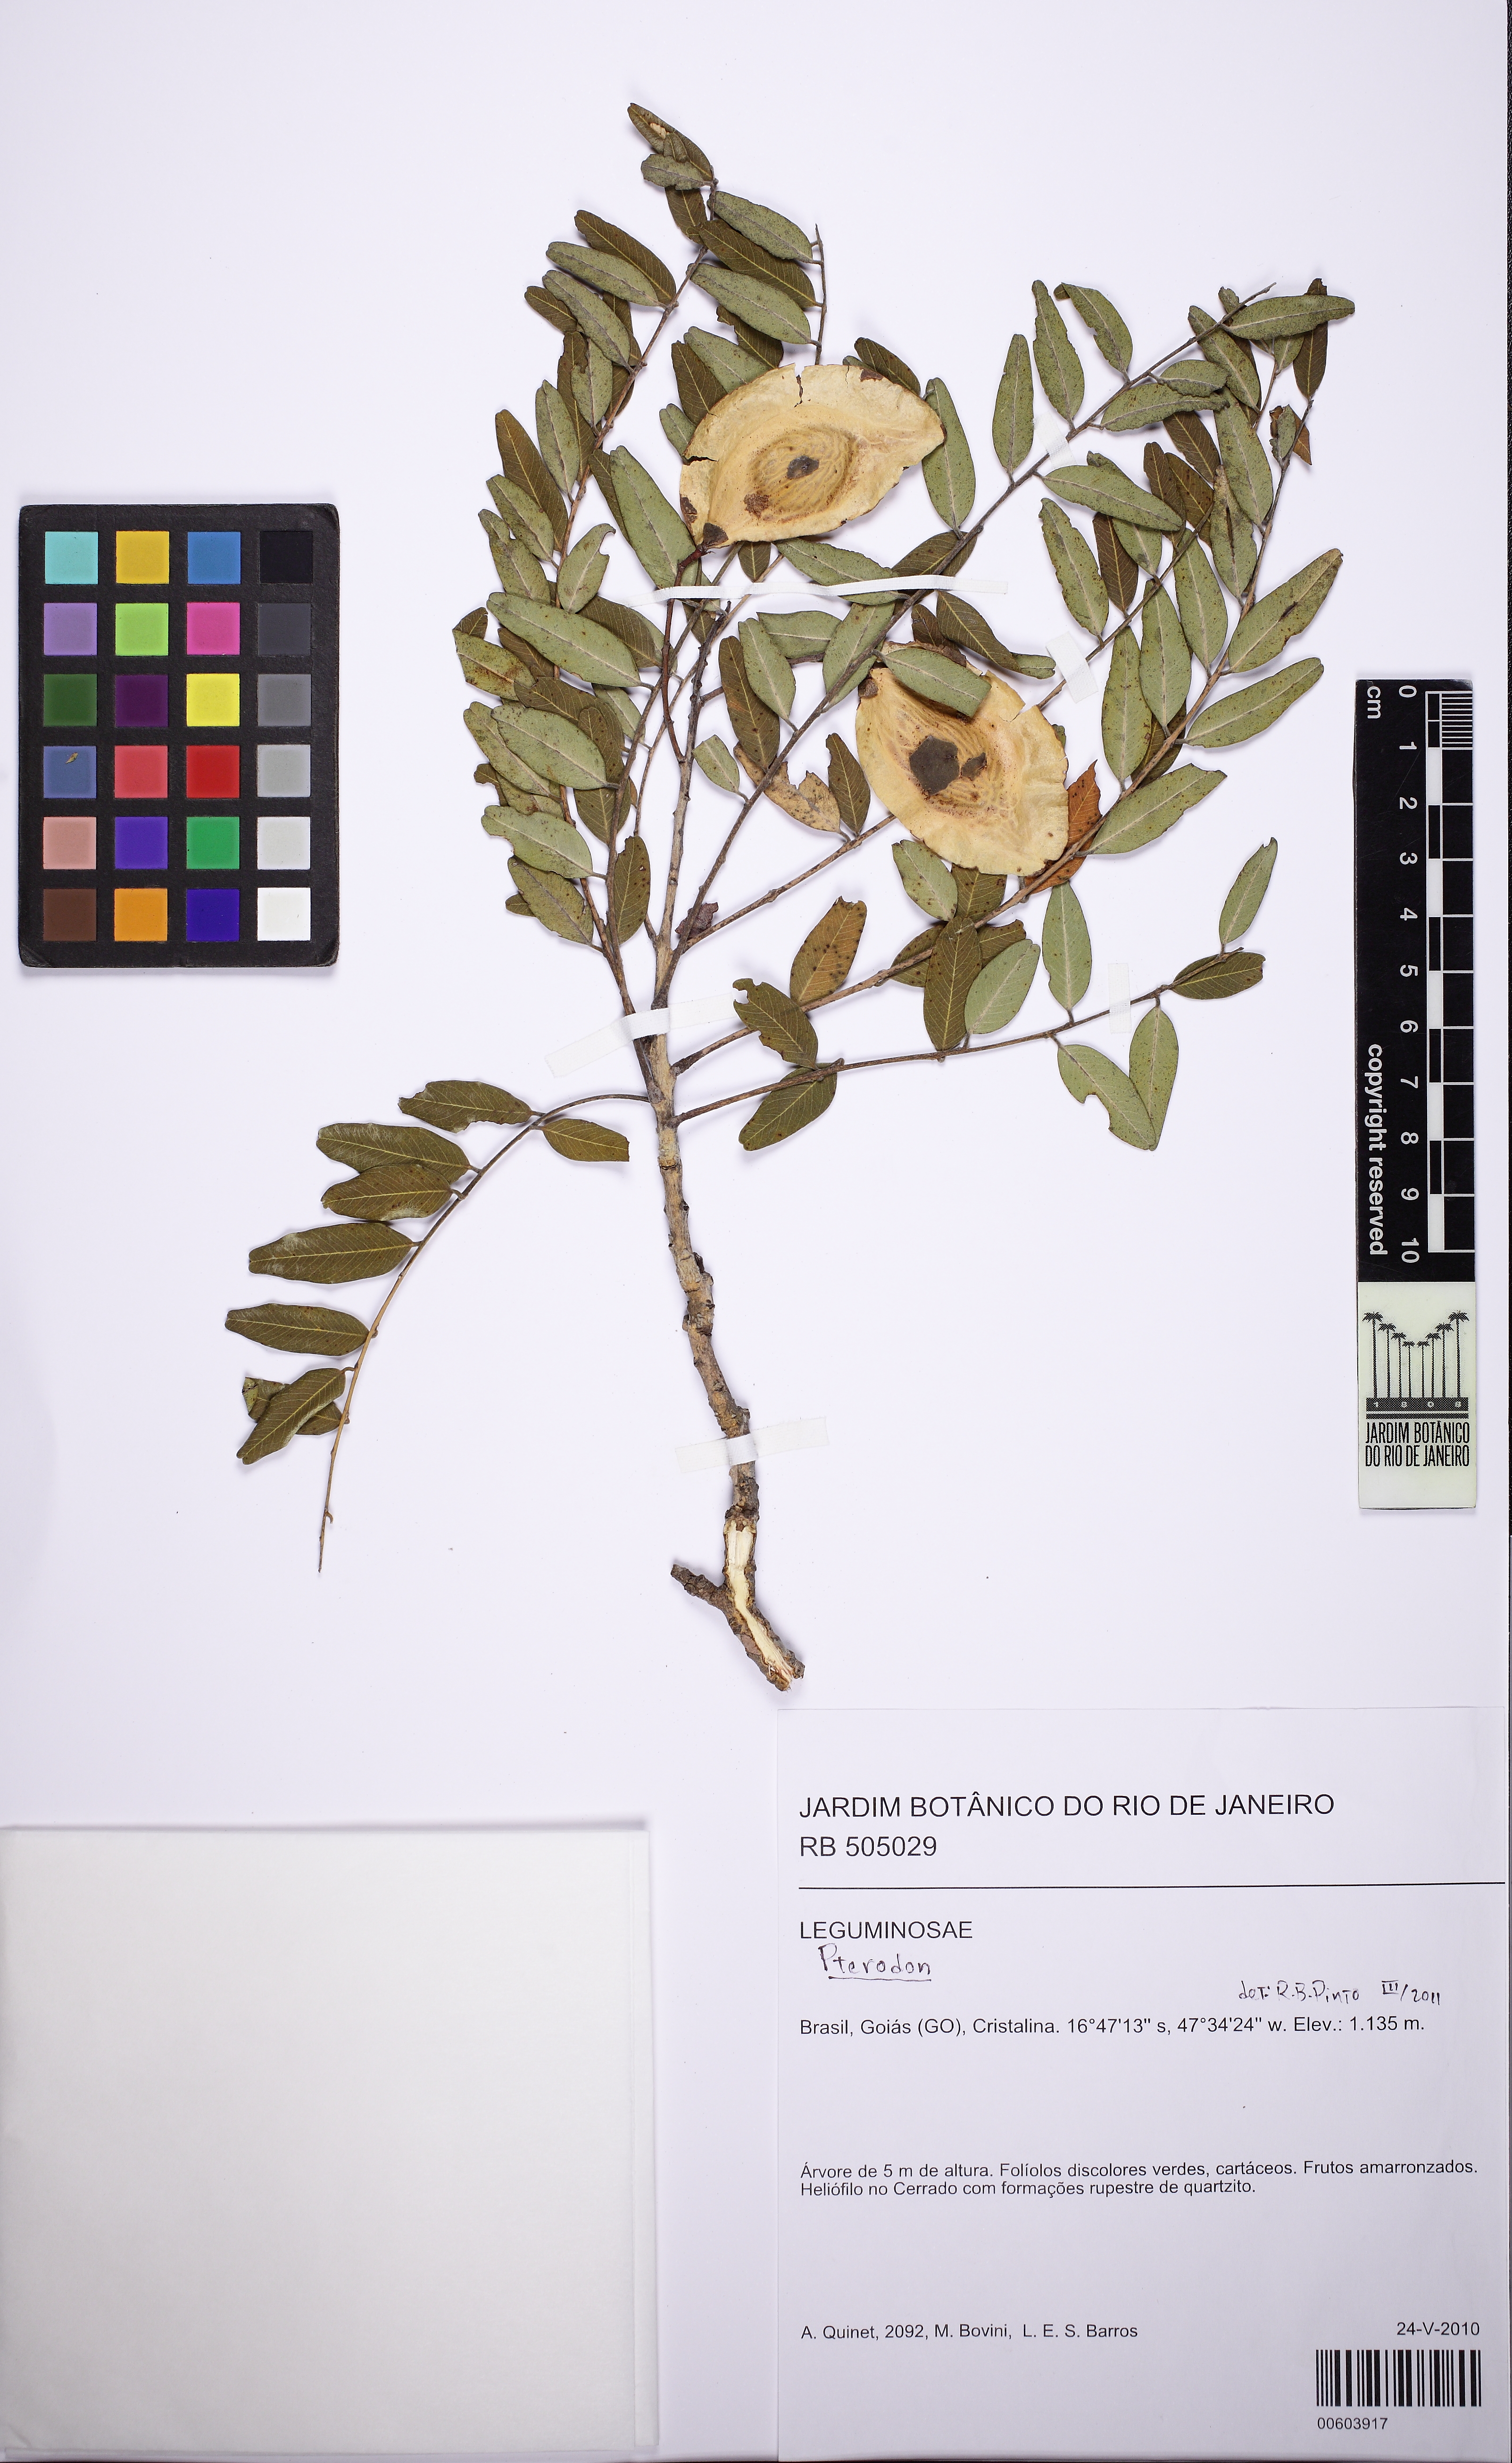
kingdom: Plantae
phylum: Tracheophyta
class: Magnoliopsida
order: Fabales
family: Fabaceae
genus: Pterodon
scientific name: Pterodon
